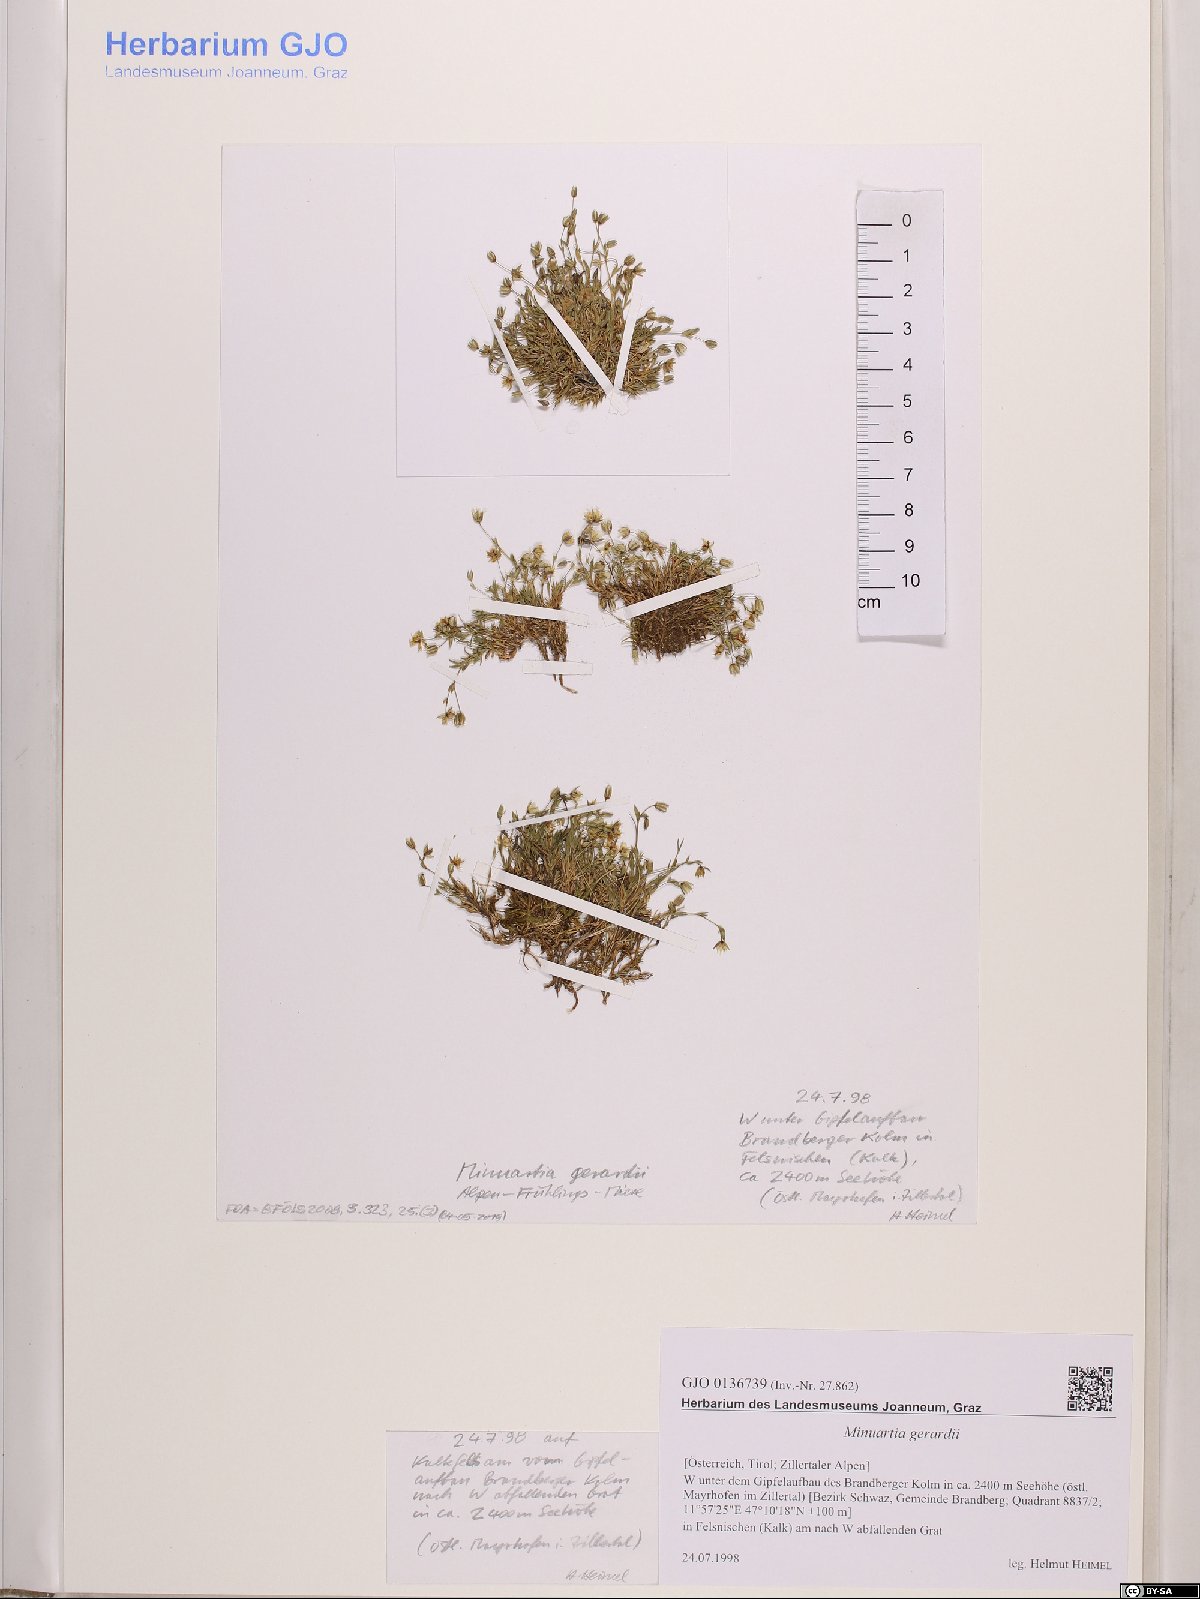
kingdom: Plantae
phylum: Tracheophyta
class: Magnoliopsida
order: Caryophyllales
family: Caryophyllaceae
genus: Sabulina
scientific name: Sabulina verna
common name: Spring sandwort
